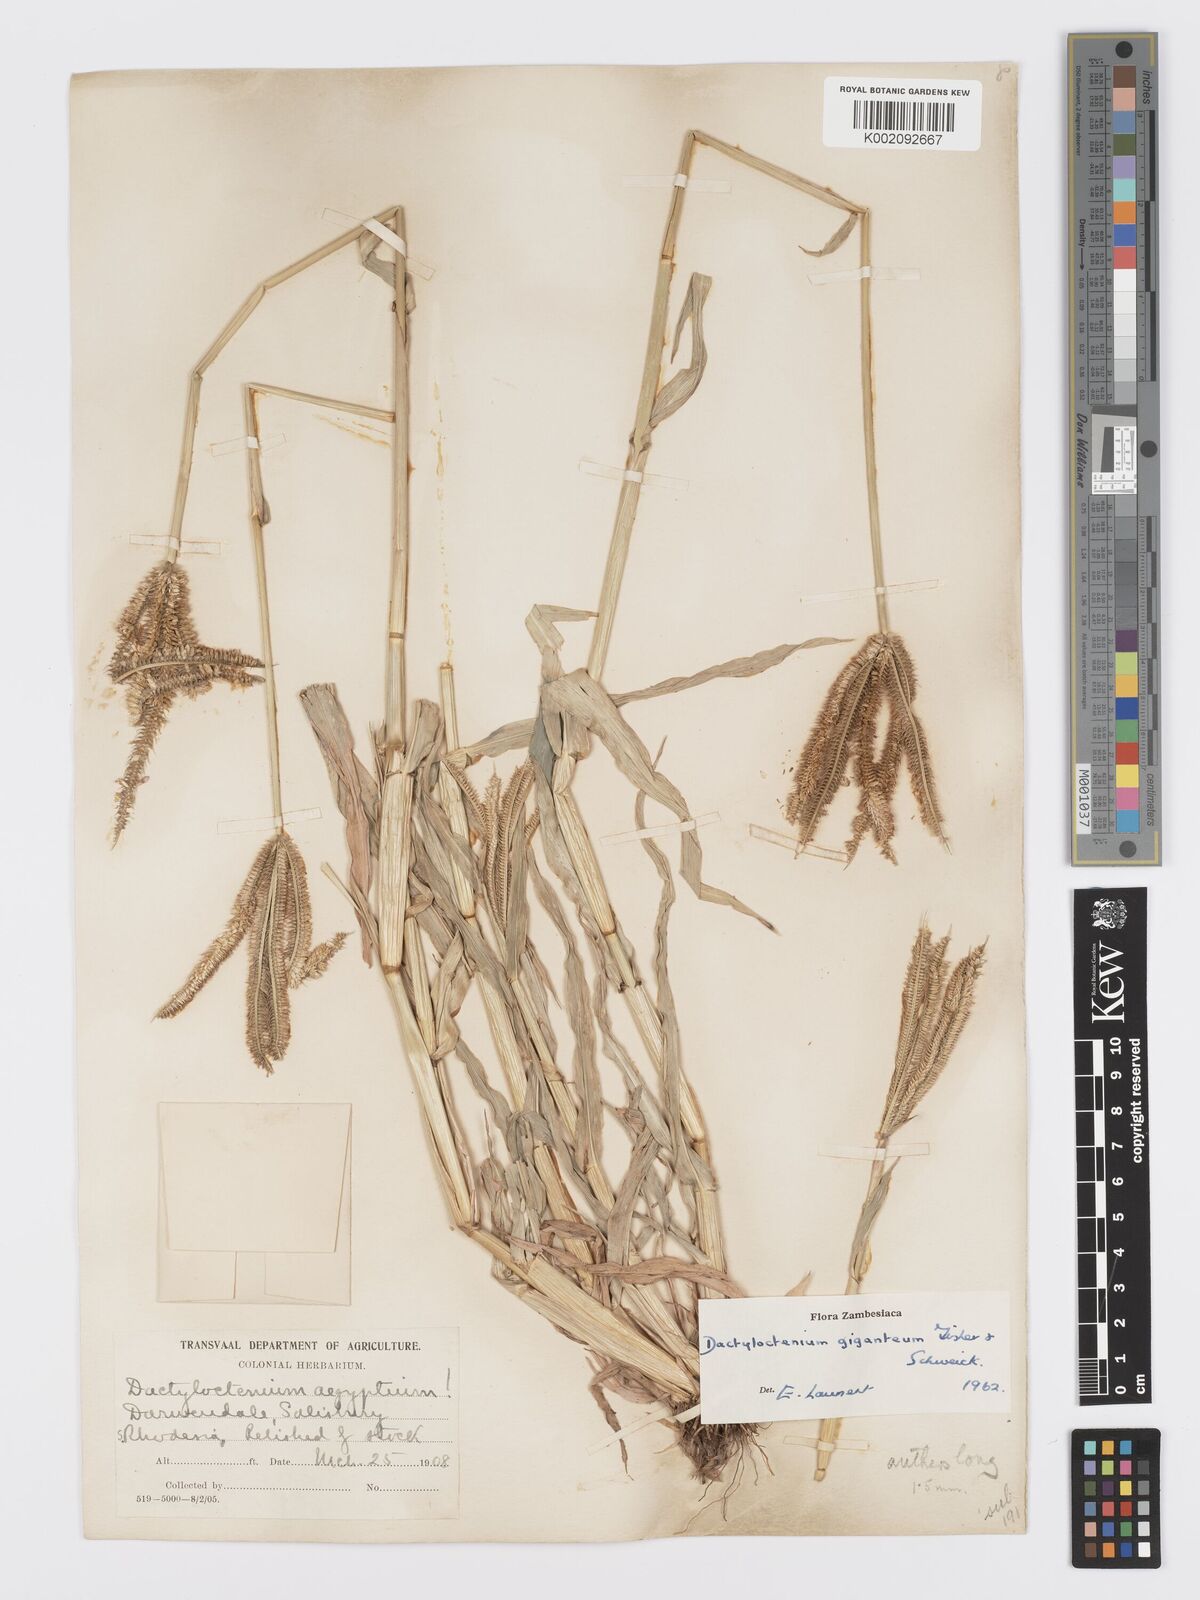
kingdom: Plantae
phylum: Tracheophyta
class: Liliopsida
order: Poales
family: Poaceae
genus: Dactyloctenium
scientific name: Dactyloctenium giganteum
